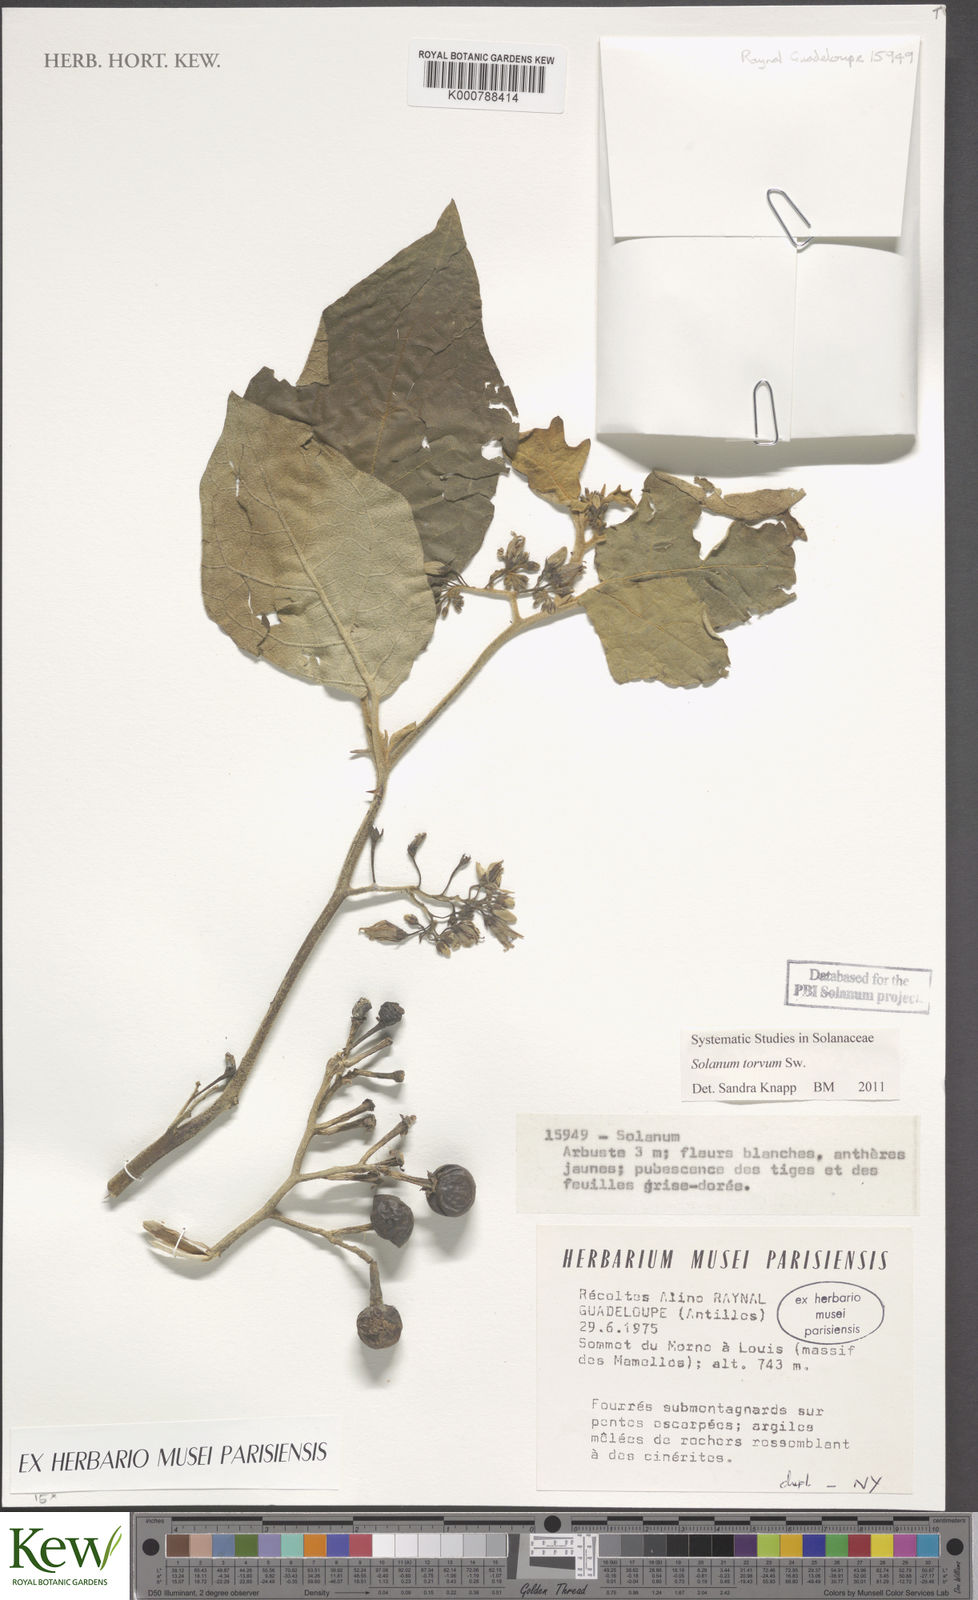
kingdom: Plantae
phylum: Tracheophyta
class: Magnoliopsida
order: Solanales
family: Solanaceae
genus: Solanum
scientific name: Solanum torvum
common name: Turkey berry
